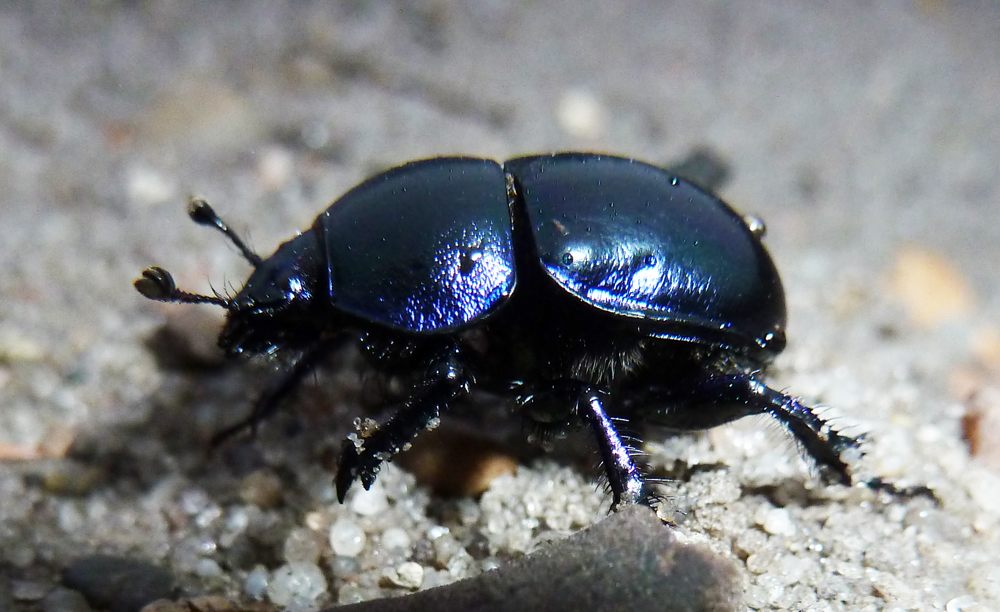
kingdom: Animalia
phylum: Arthropoda
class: Insecta
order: Coleoptera
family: Geotrupidae
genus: Trypocopris
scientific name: Trypocopris vernalis
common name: Spring dumbledor
